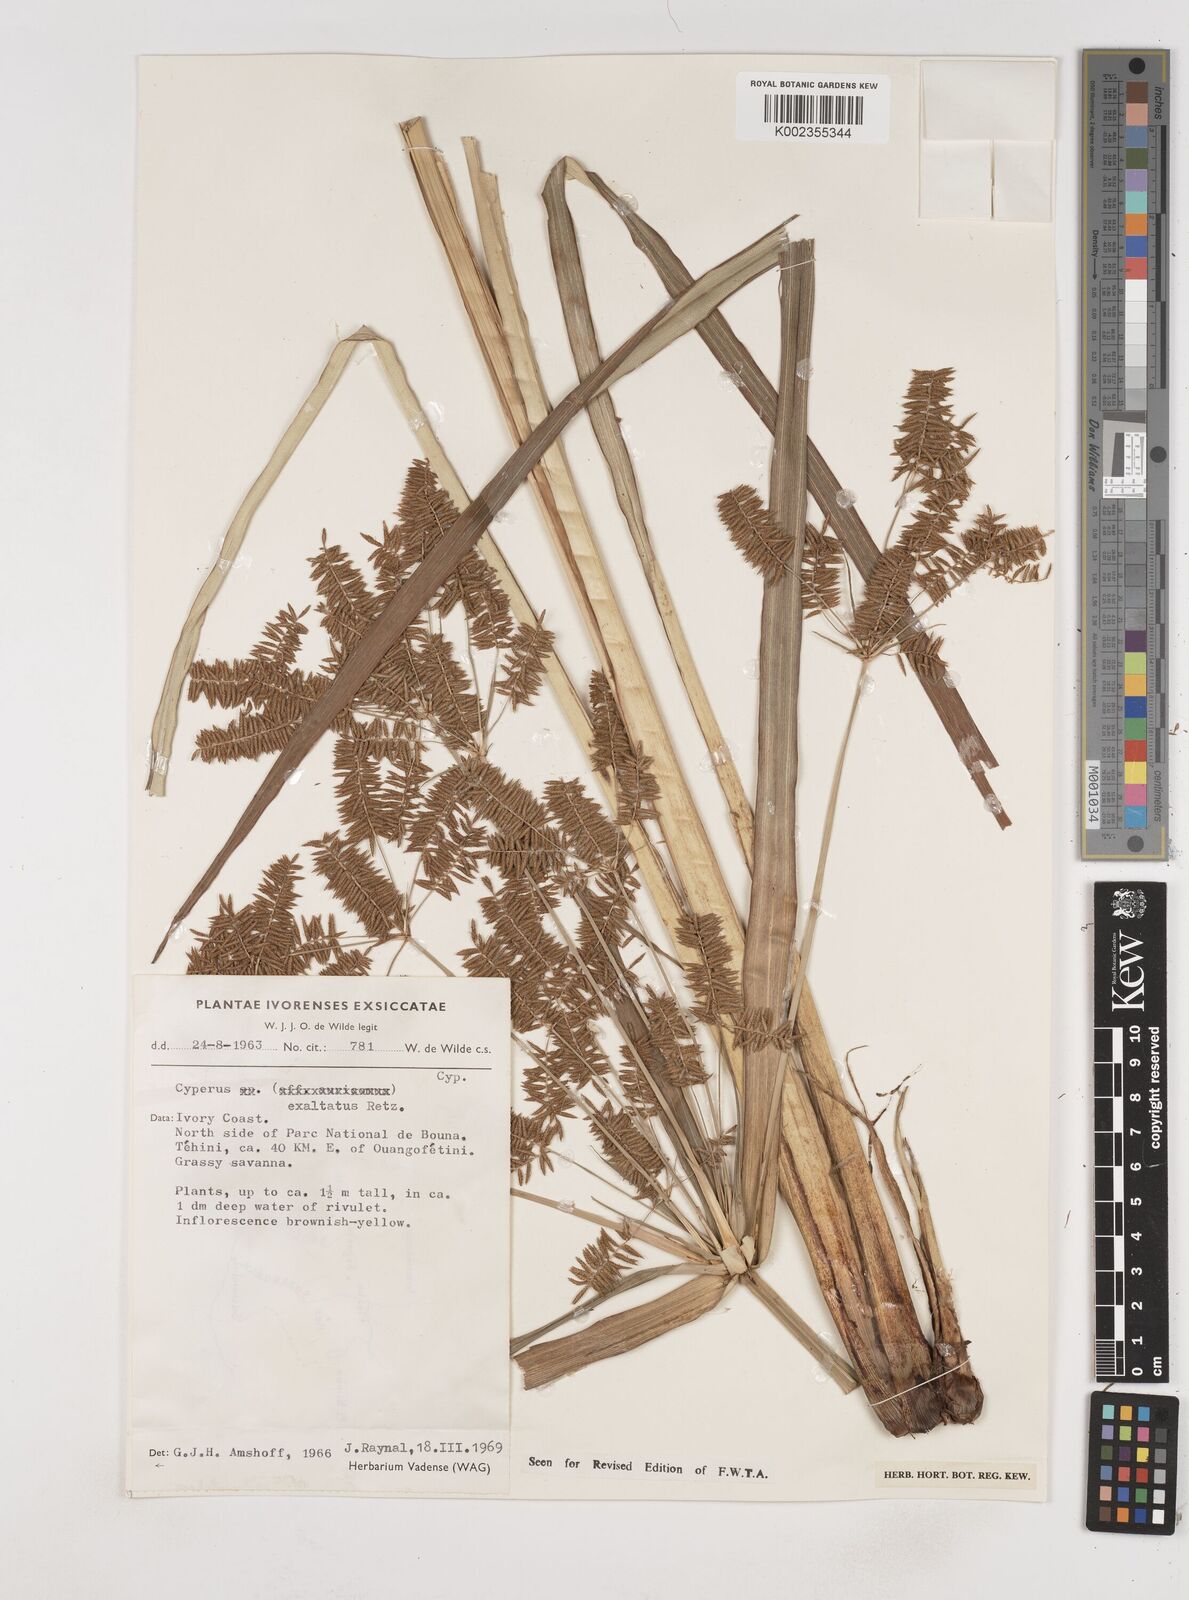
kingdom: Plantae
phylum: Tracheophyta
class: Liliopsida
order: Poales
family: Cyperaceae
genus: Cyperus
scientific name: Cyperus exaltatus
